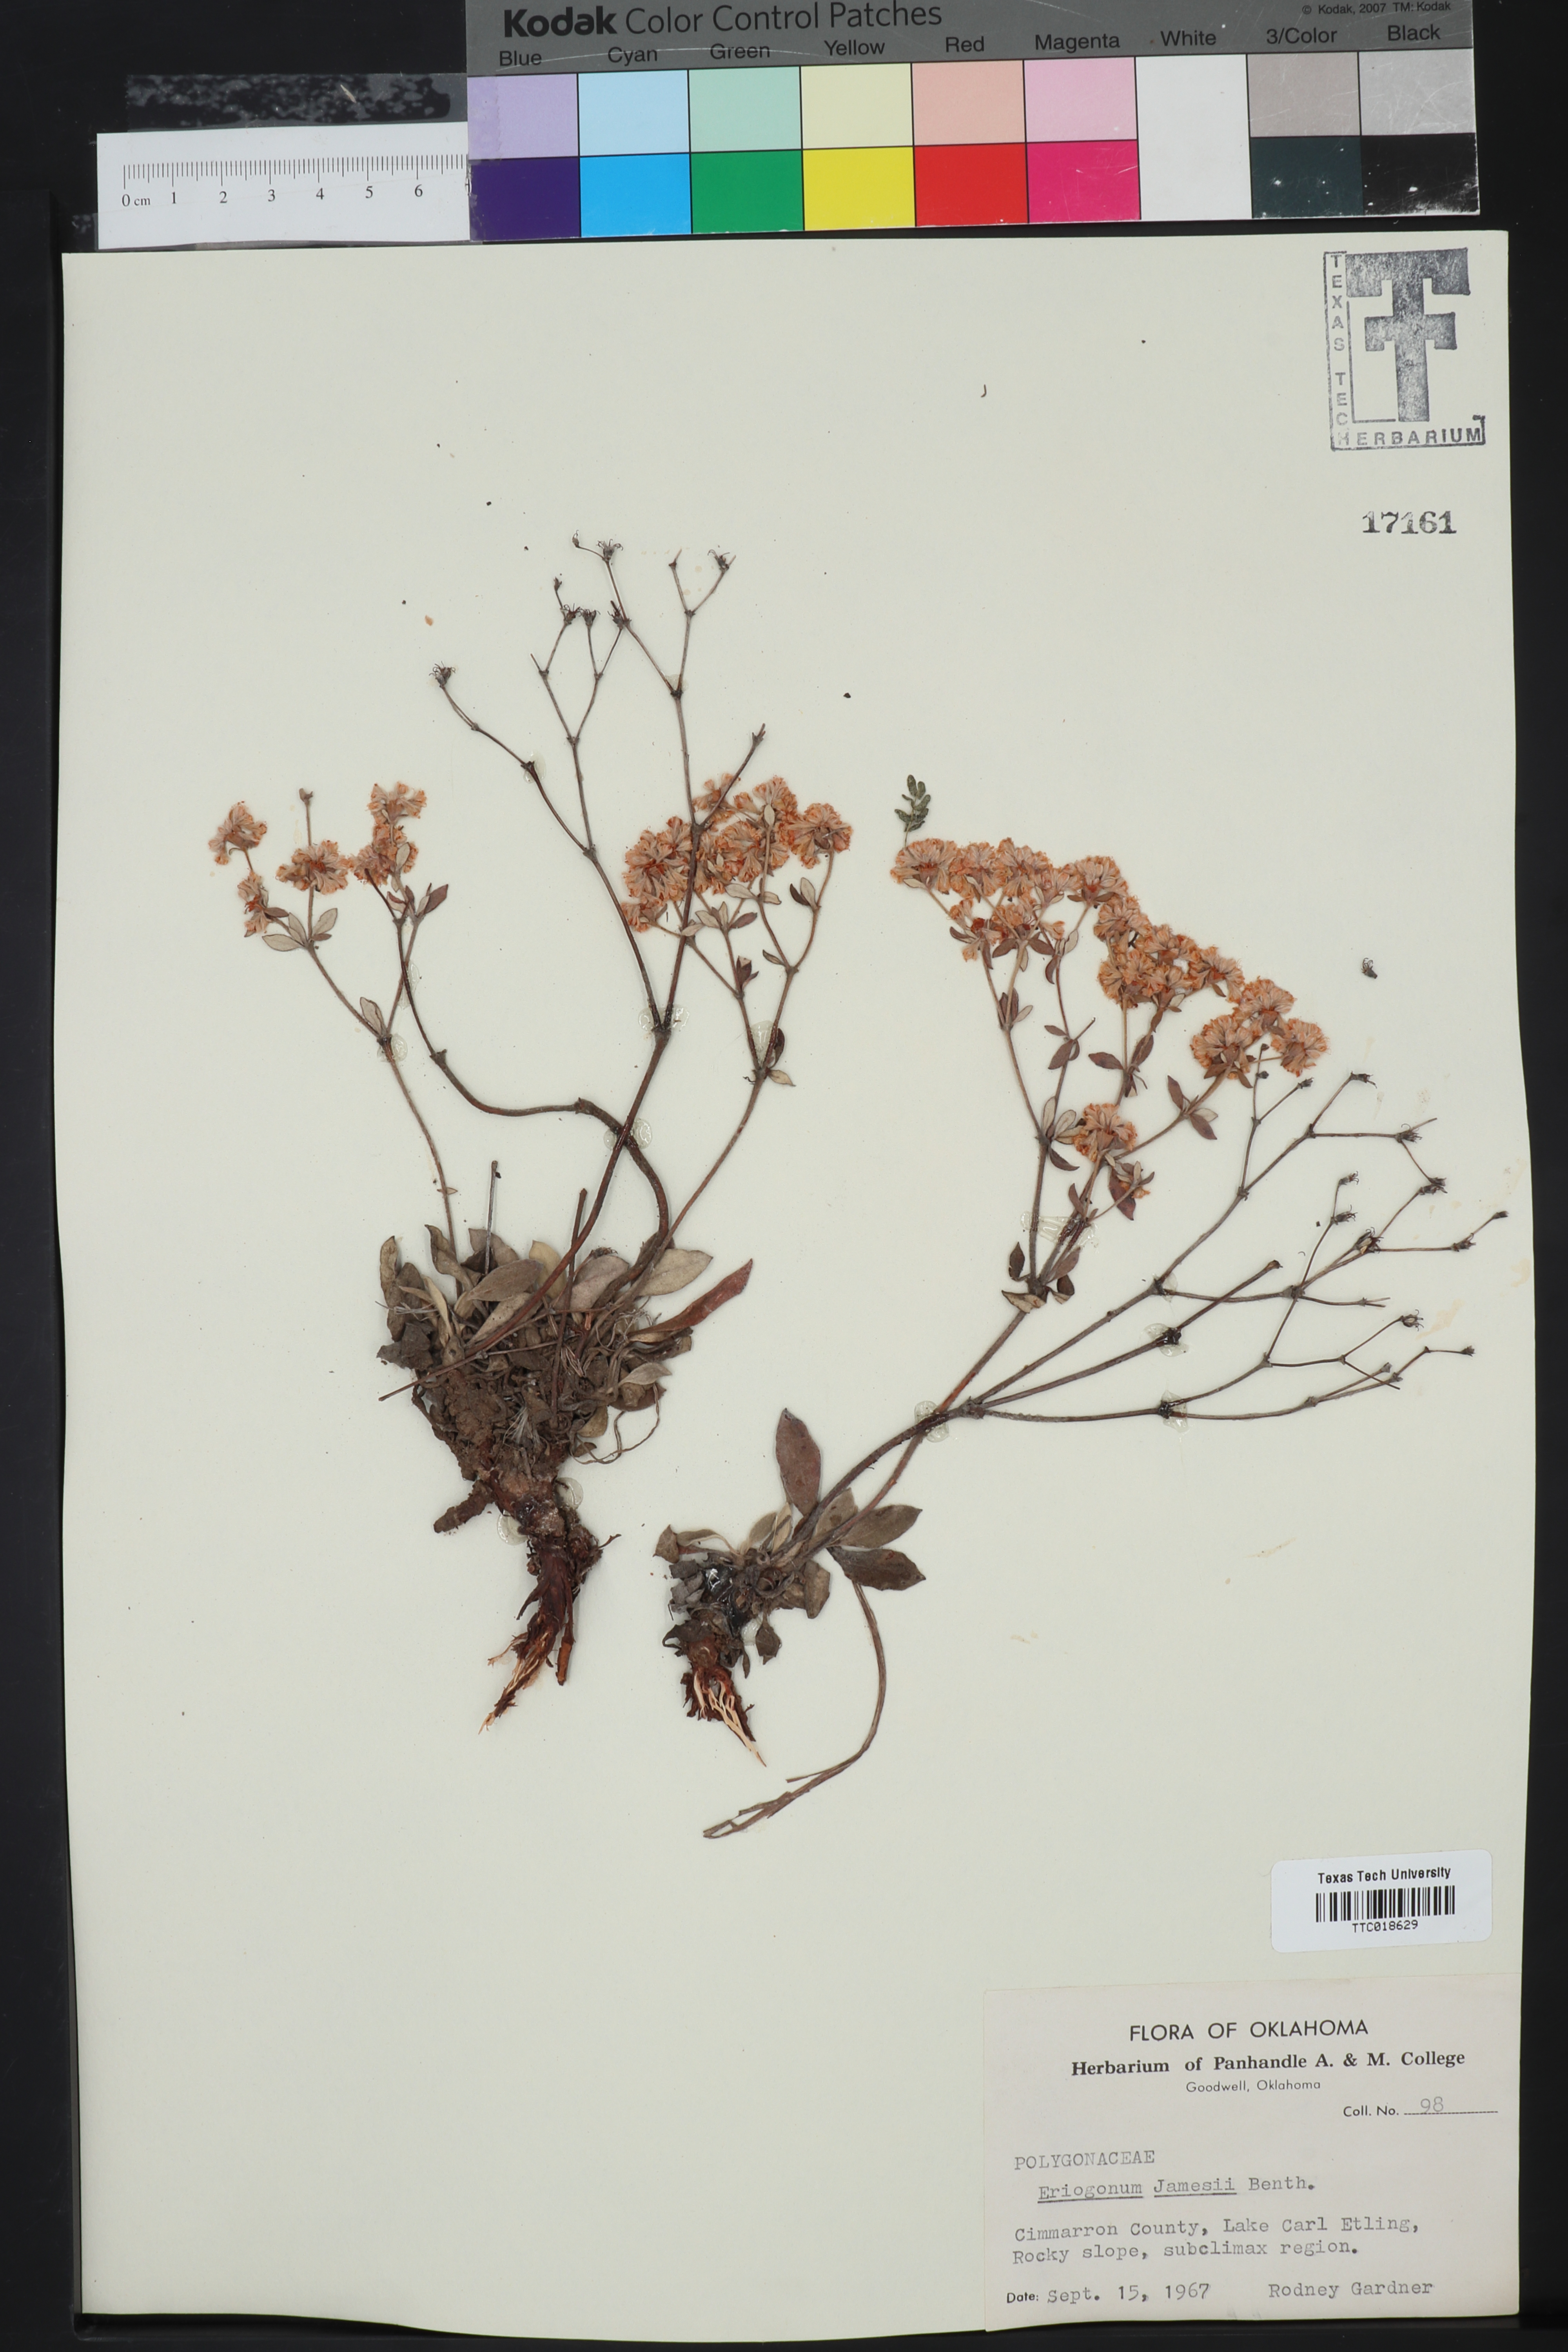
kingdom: Plantae
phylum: Tracheophyta
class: Magnoliopsida
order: Caryophyllales
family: Polygonaceae
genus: Eriogonum
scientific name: Eriogonum jamesii
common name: Antelope-sage
